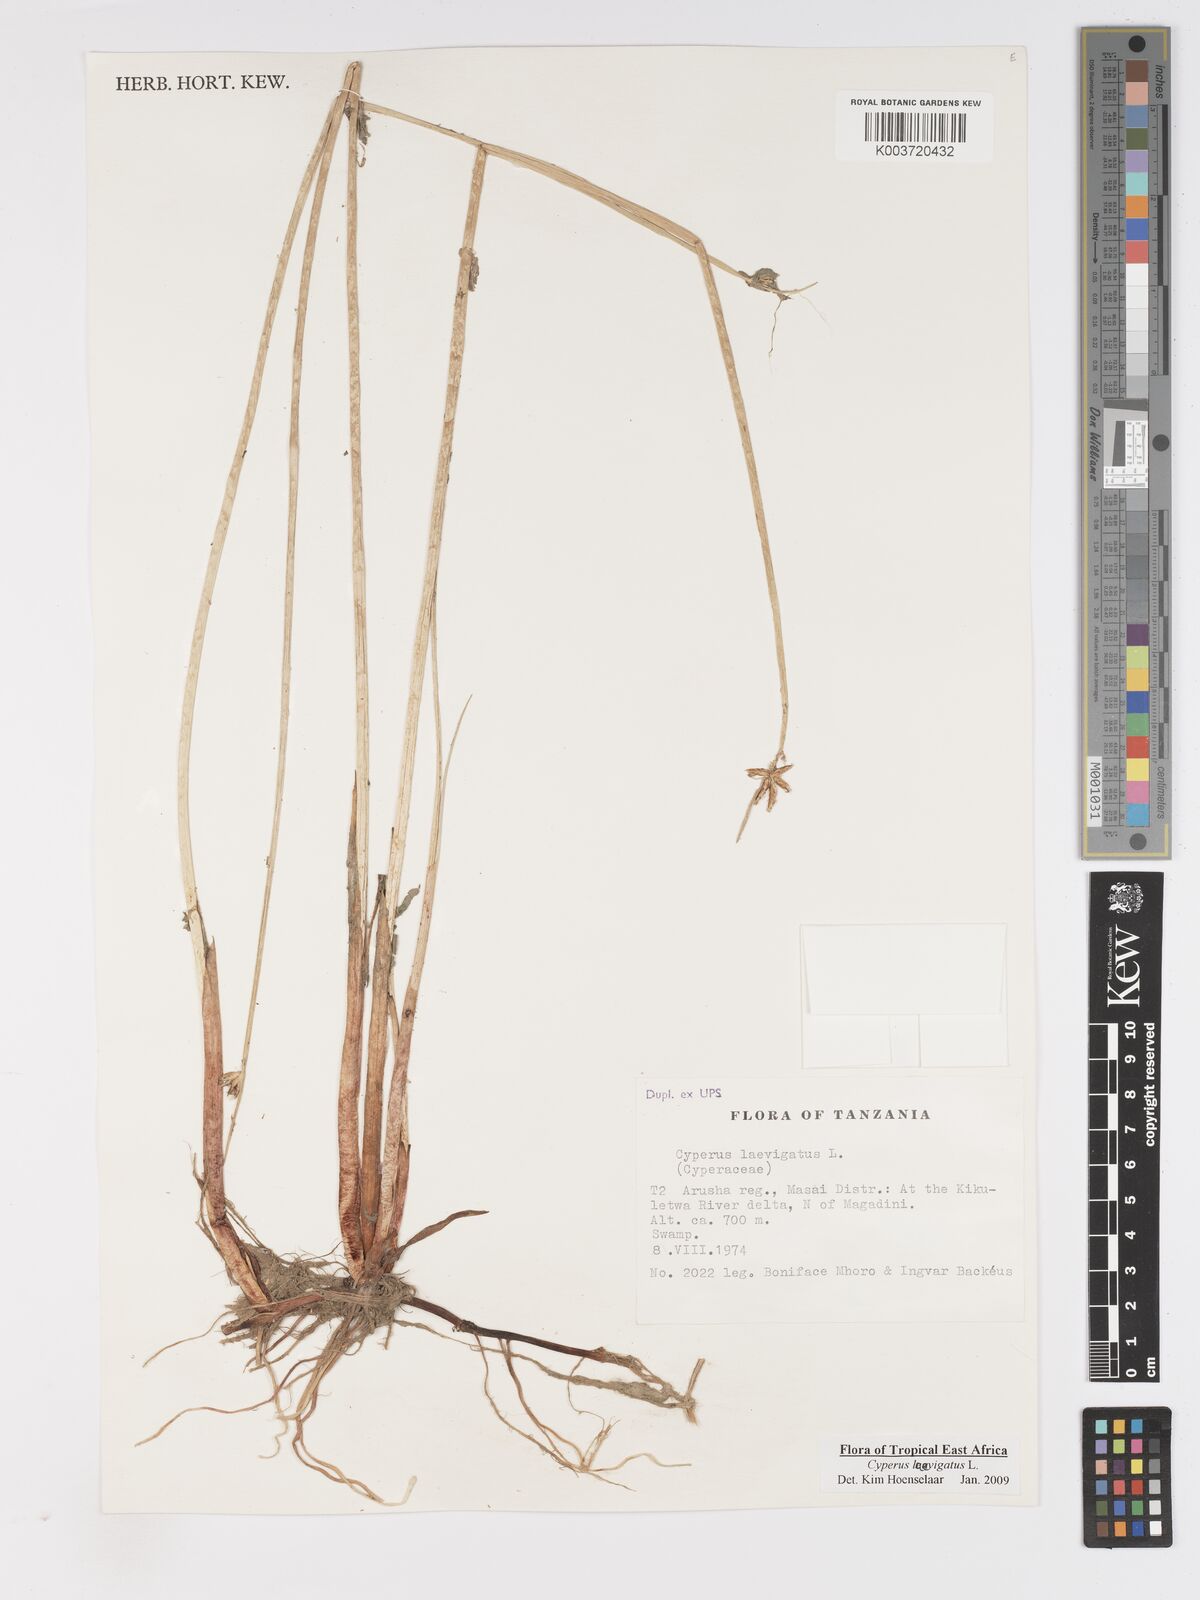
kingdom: Plantae
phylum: Tracheophyta
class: Liliopsida
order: Poales
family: Cyperaceae
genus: Cyperus
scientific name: Cyperus laevigatus
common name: Smooth flat sedge
